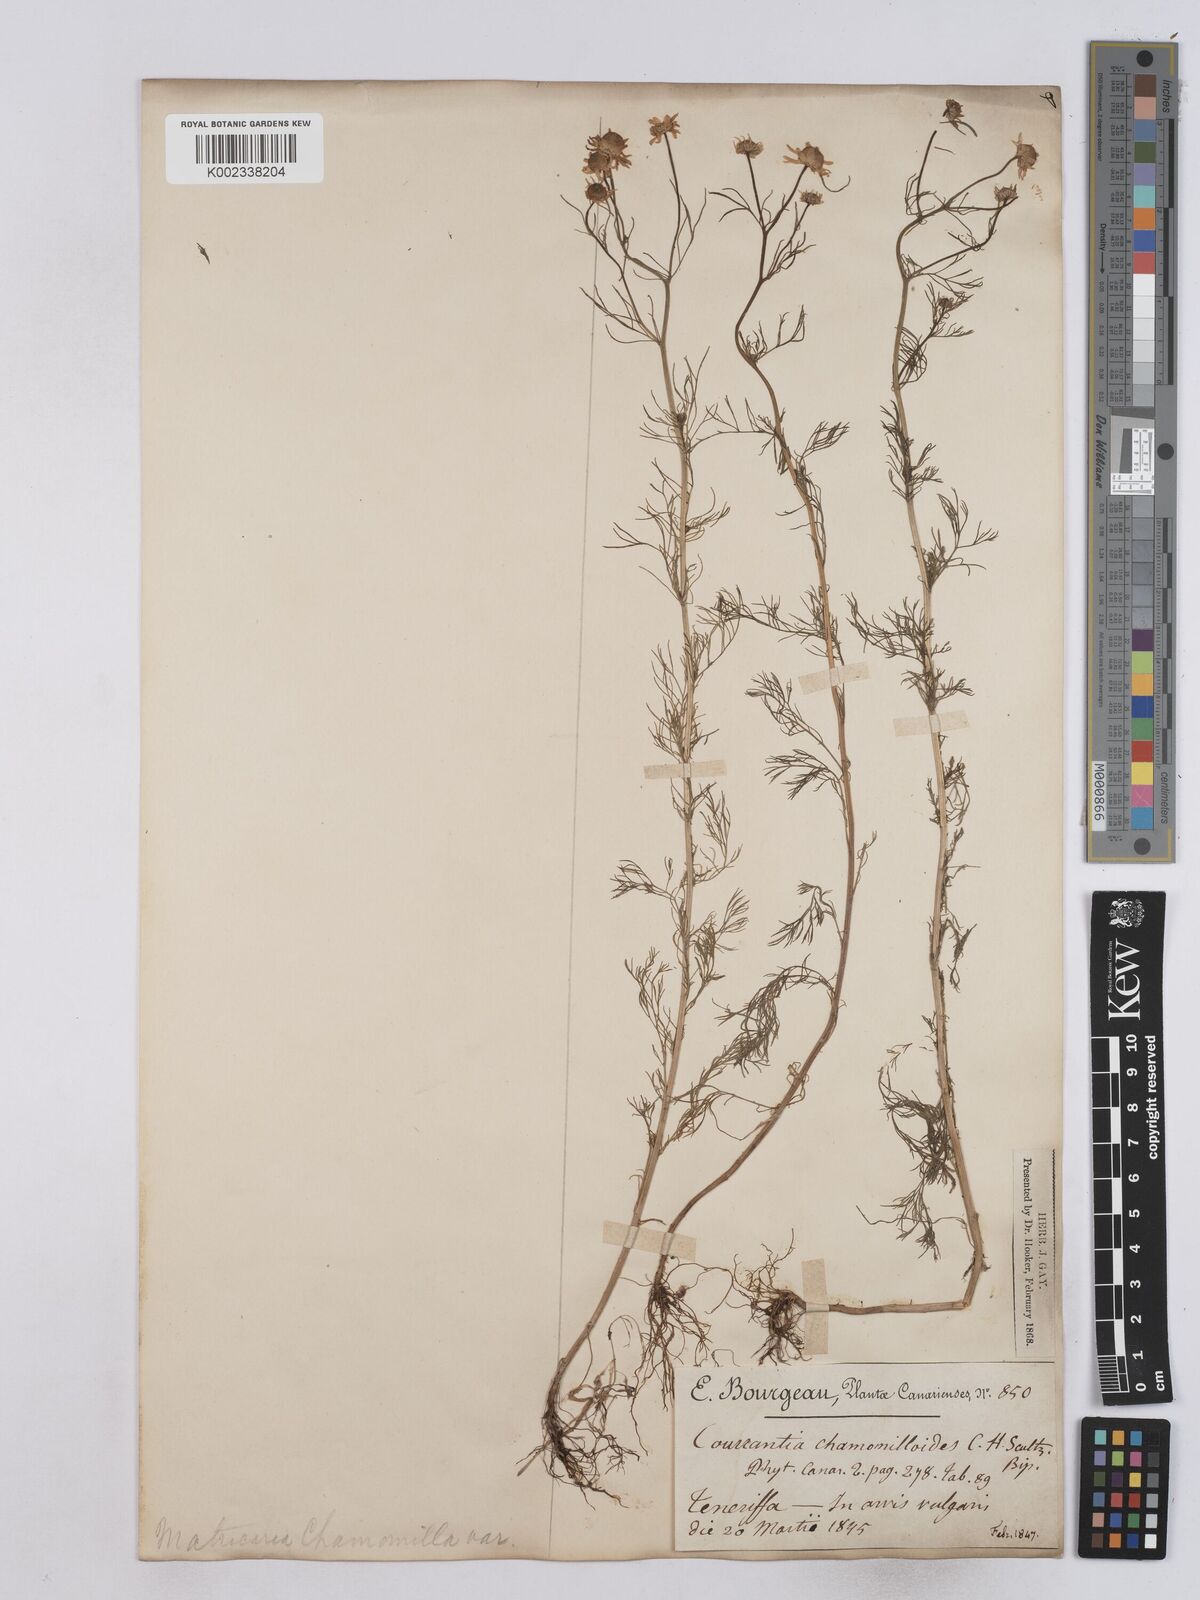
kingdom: Plantae
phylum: Tracheophyta
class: Magnoliopsida
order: Asterales
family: Asteraceae
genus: Matricaria
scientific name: Matricaria chamomilla
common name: Scented mayweed
